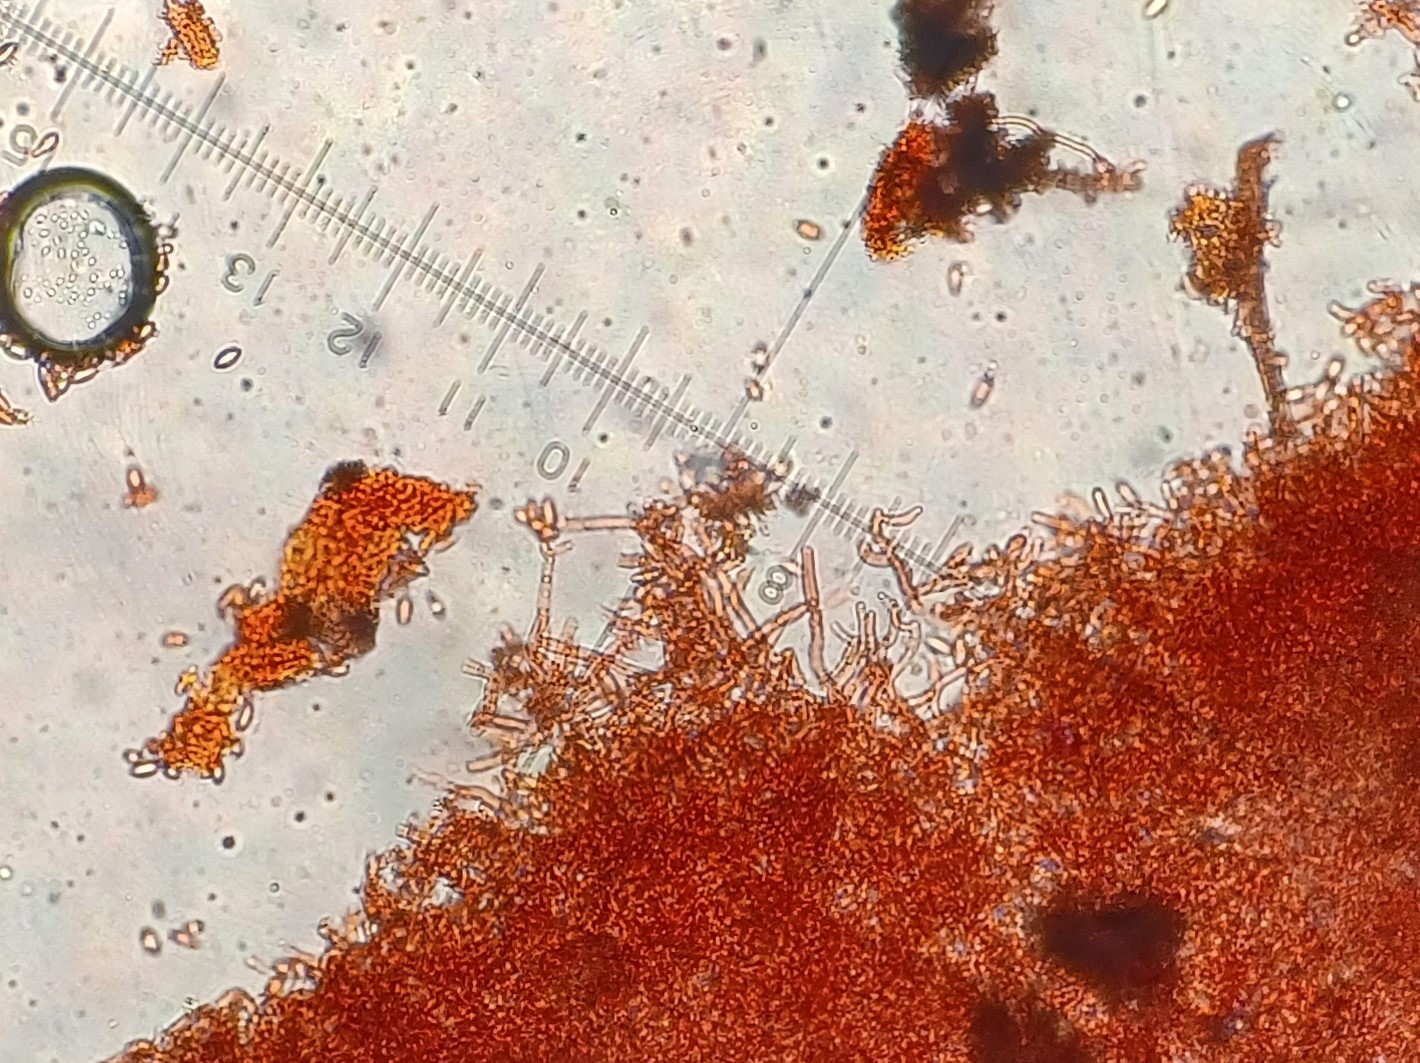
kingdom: Fungi
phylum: Basidiomycota
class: Agaricomycetes
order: Cantharellales
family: Botryobasidiaceae
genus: Botryobasidium
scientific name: Botryobasidium aureum
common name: gylden spindhinde
